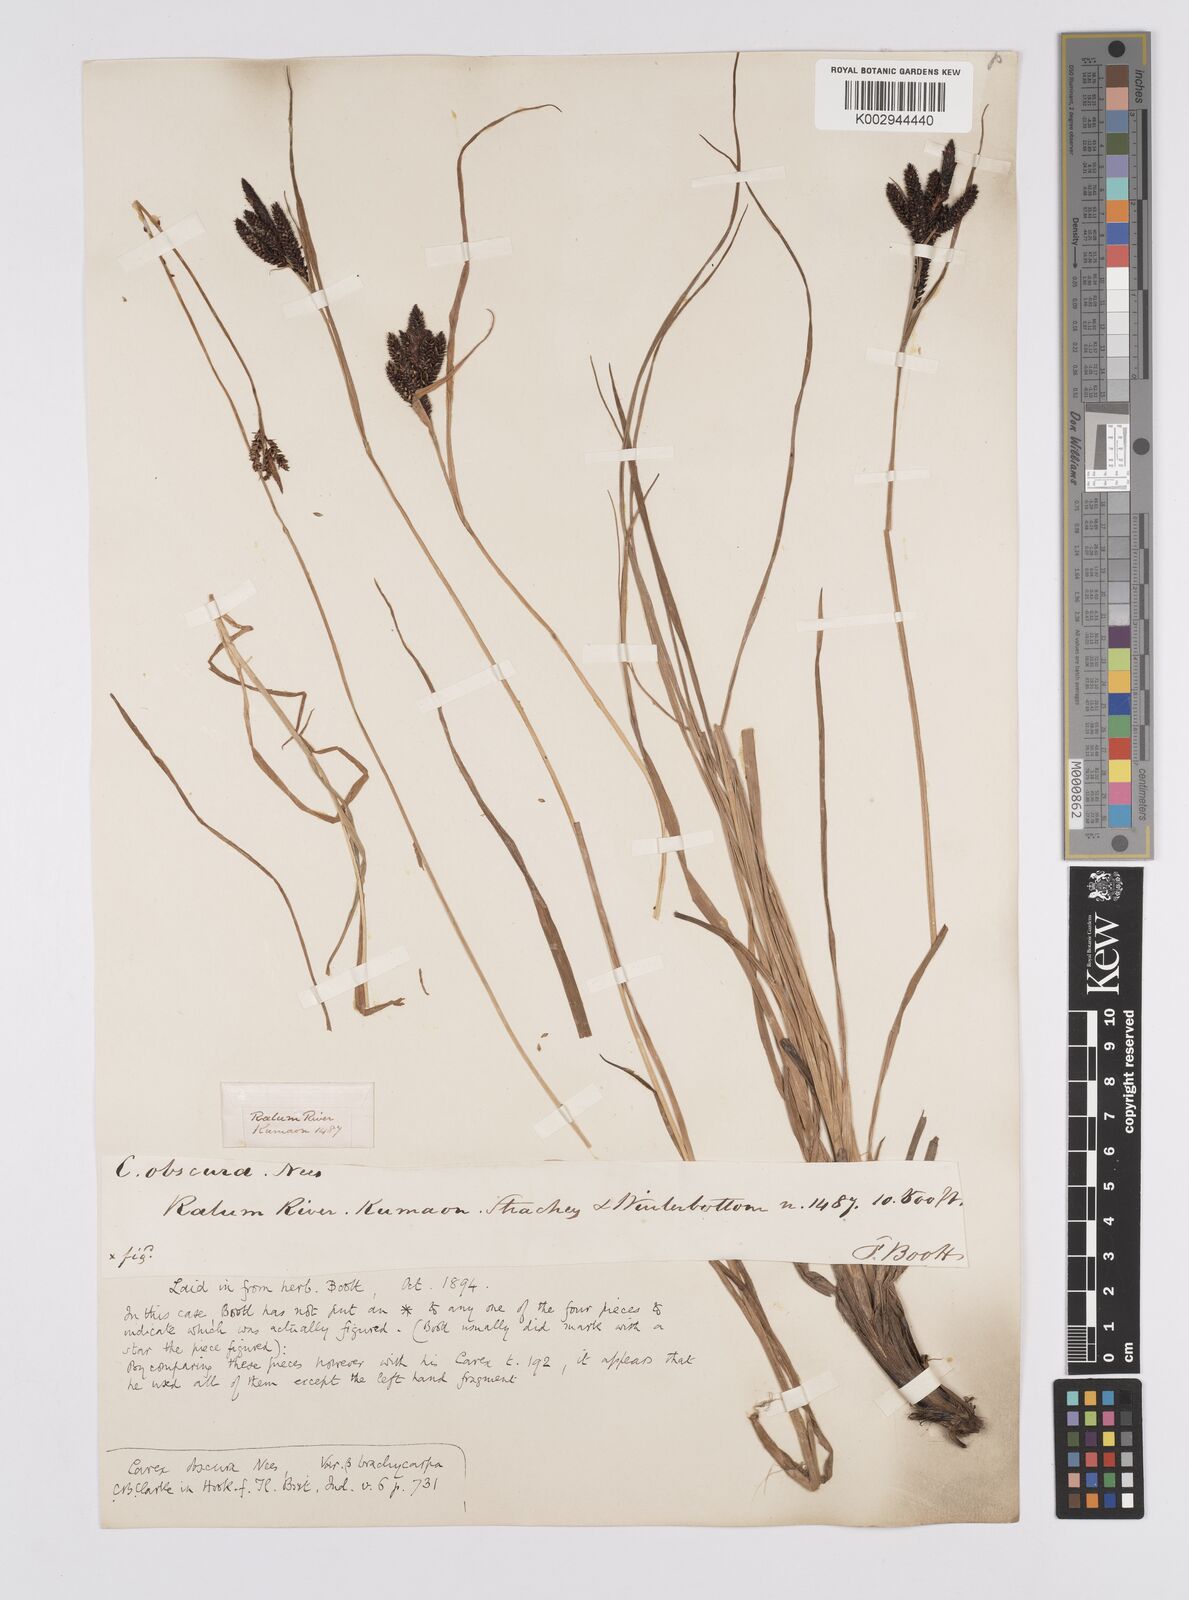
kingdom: Plantae
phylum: Tracheophyta
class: Liliopsida
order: Poales
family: Cyperaceae
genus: Carex
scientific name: Carex obscura
